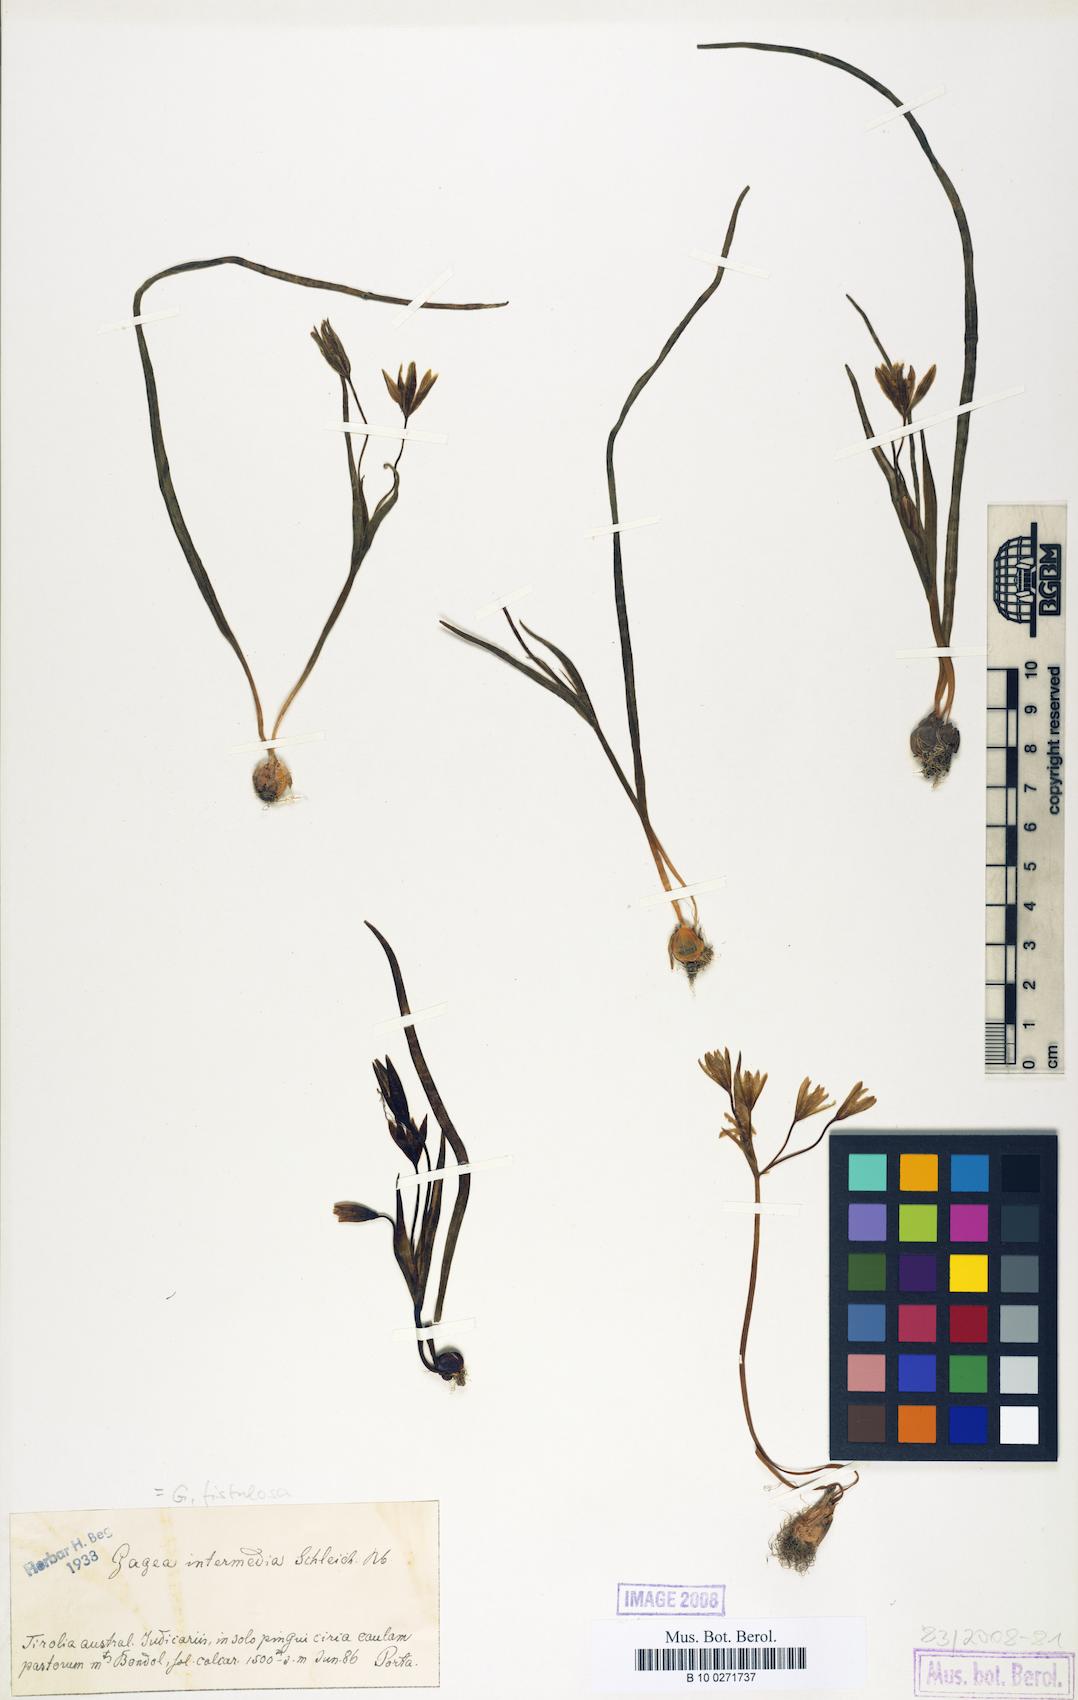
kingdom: Plantae
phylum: Tracheophyta
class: Liliopsida
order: Liliales
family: Liliaceae
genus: Gagea
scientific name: Gagea bohemica
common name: Early star-of-bethlehem
